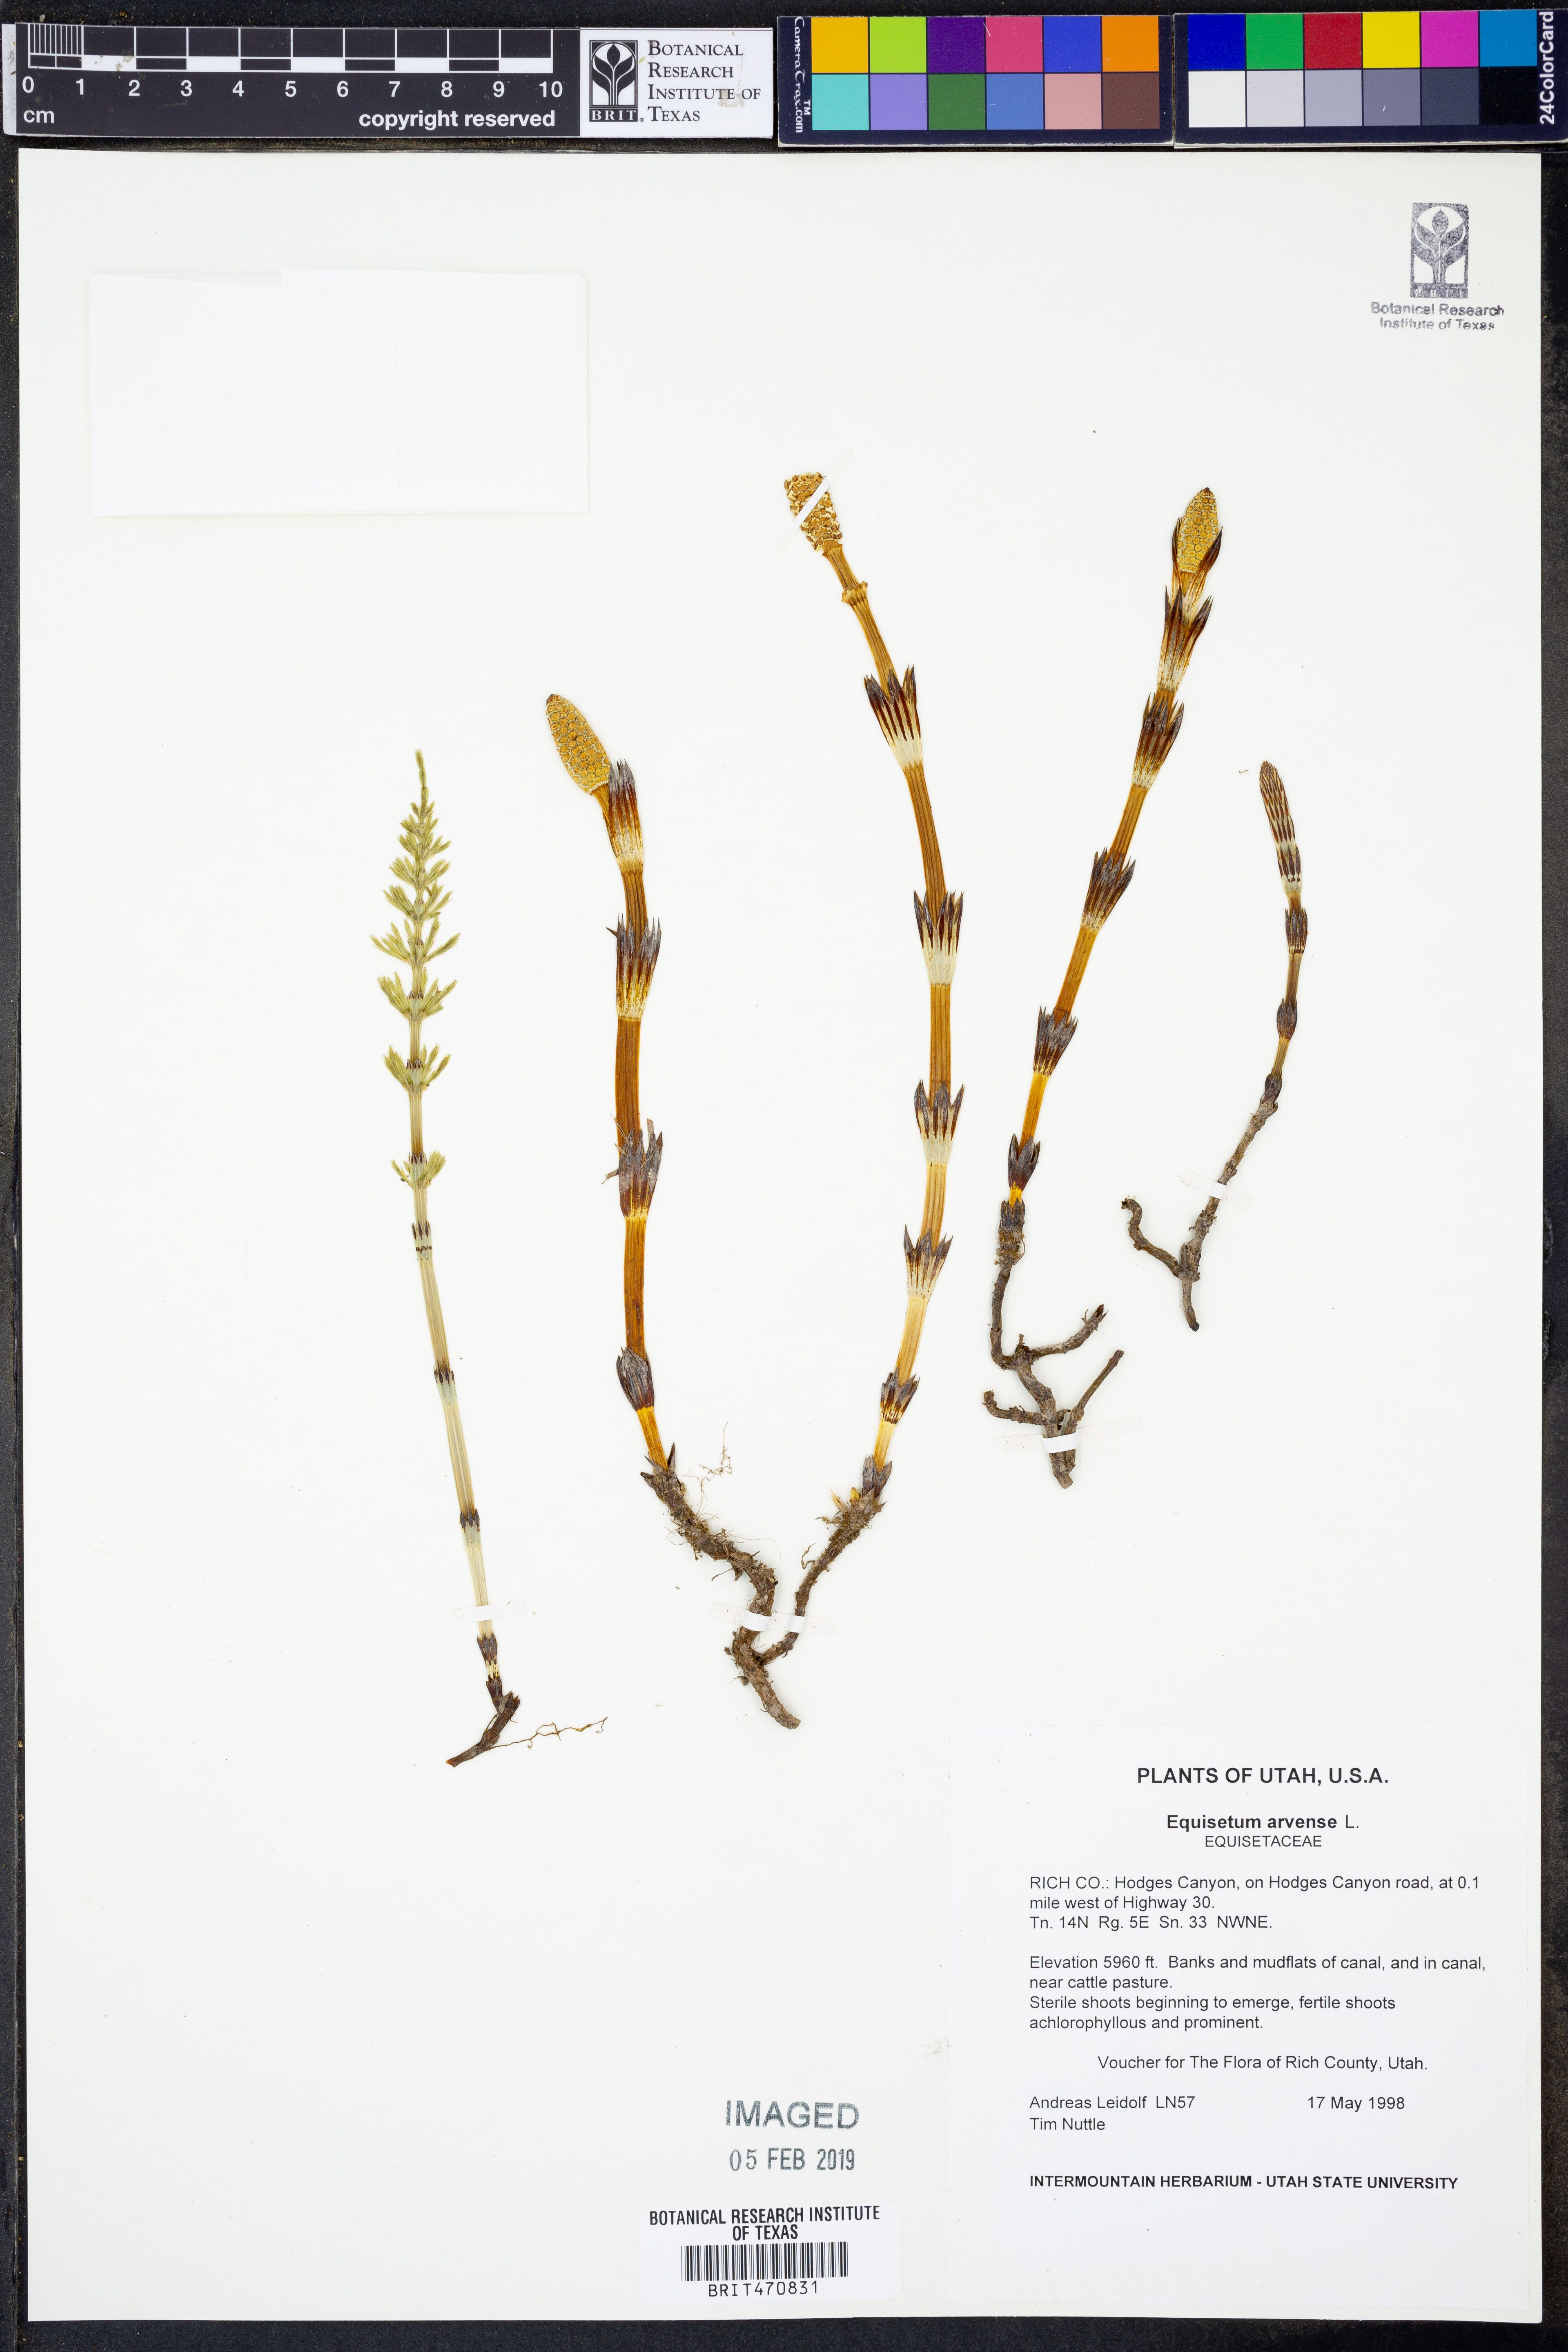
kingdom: Plantae
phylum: Tracheophyta
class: Polypodiopsida
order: Equisetales
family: Equisetaceae
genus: Equisetum
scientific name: Equisetum arvense
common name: Field horsetail
